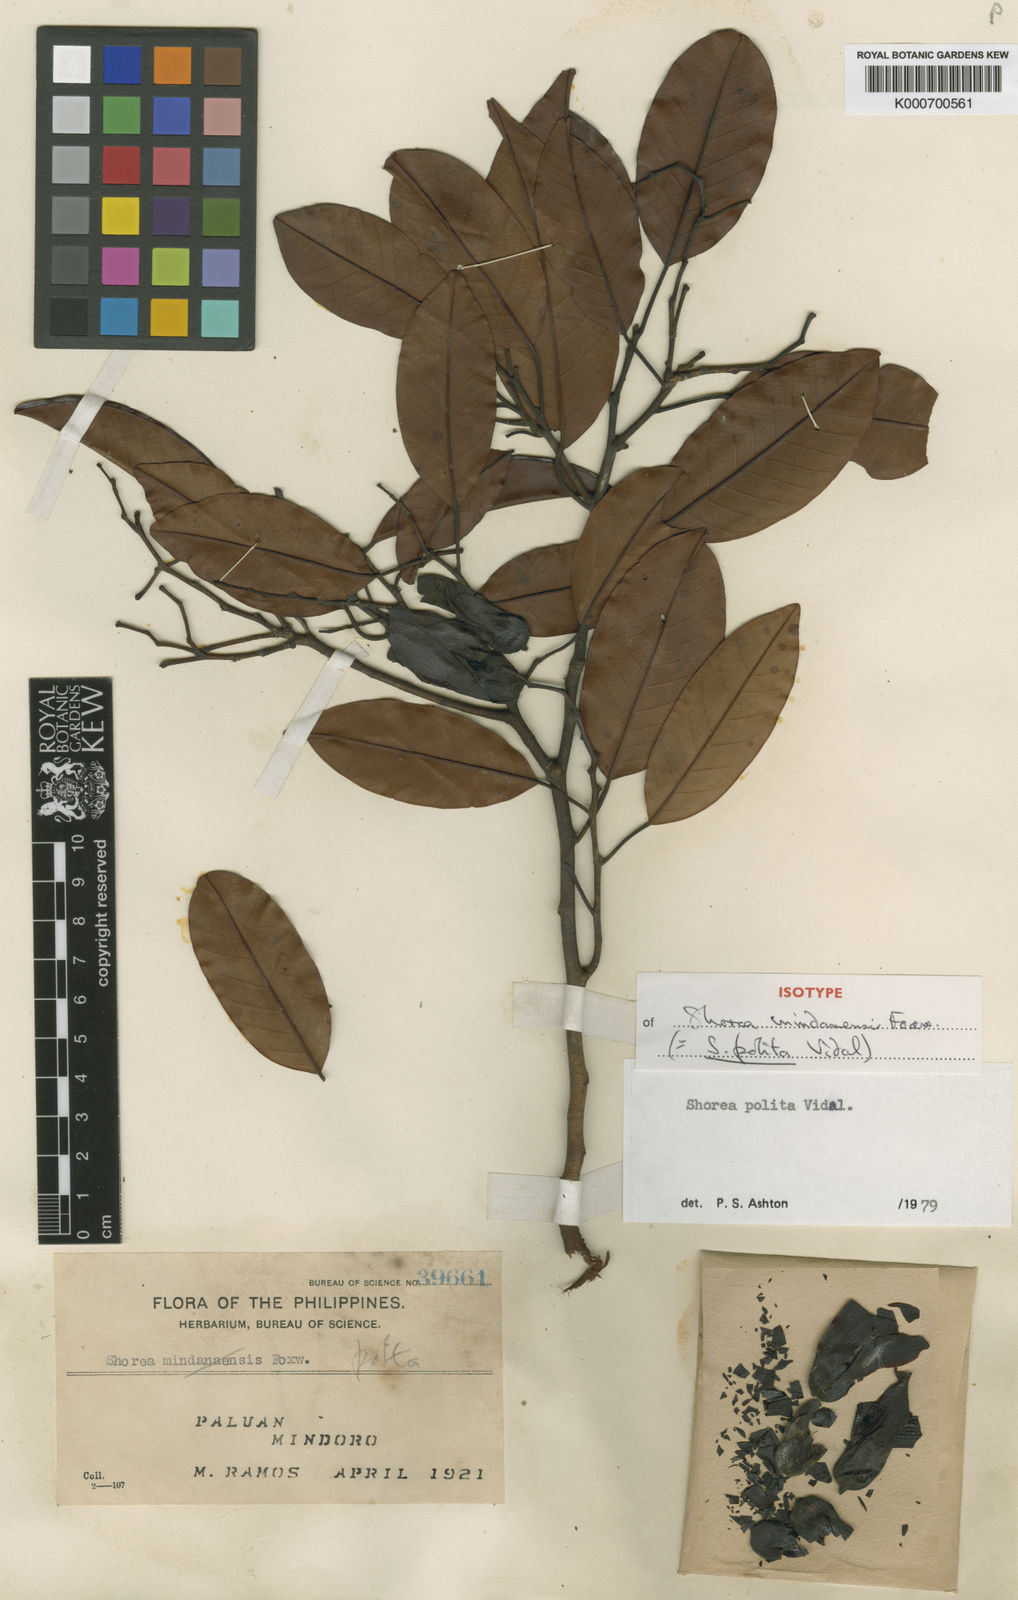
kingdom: Plantae
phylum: Tracheophyta
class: Magnoliopsida
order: Malvales
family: Dipterocarpaceae
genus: Anthoshorea
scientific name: Anthoshorea polita
